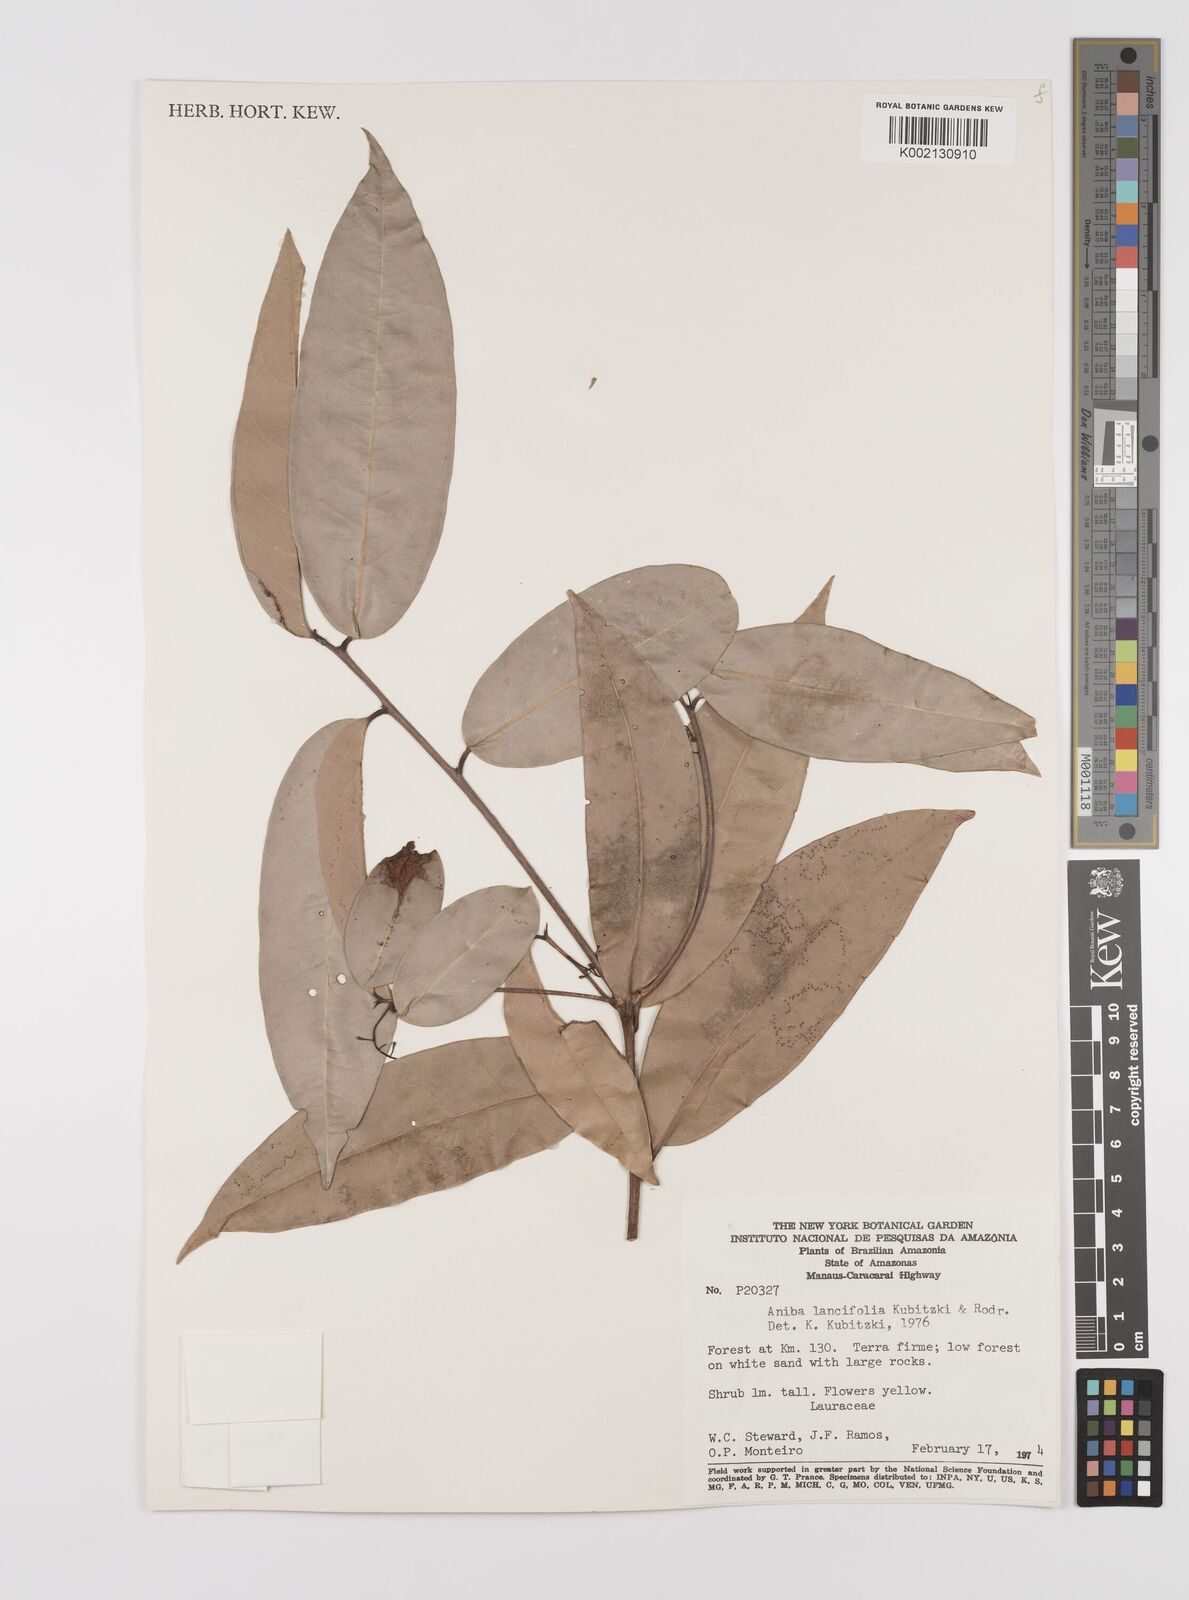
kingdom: Plantae
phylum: Tracheophyta
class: Magnoliopsida
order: Laurales
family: Lauraceae
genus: Aniba
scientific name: Aniba lancifolia
